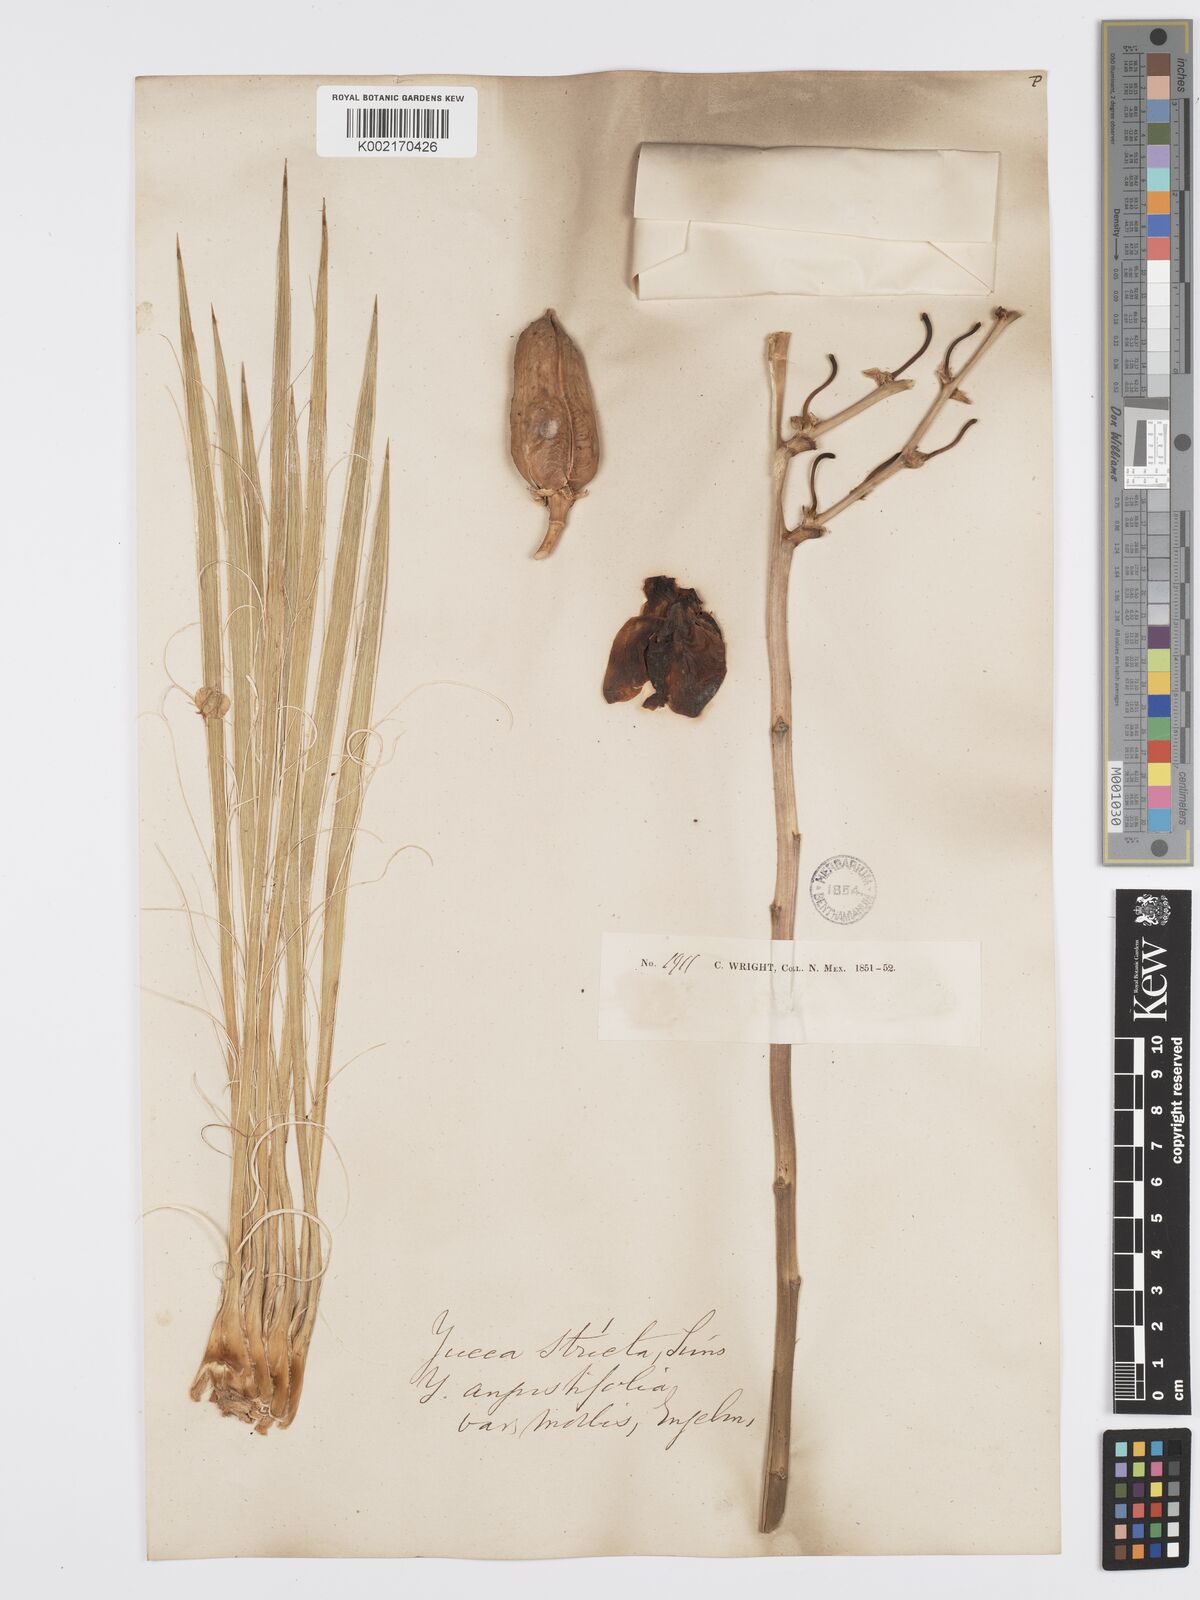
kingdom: Plantae
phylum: Tracheophyta
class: Liliopsida
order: Asparagales
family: Asparagaceae
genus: Yucca
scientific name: Yucca arkansana
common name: Arkansas yucca
